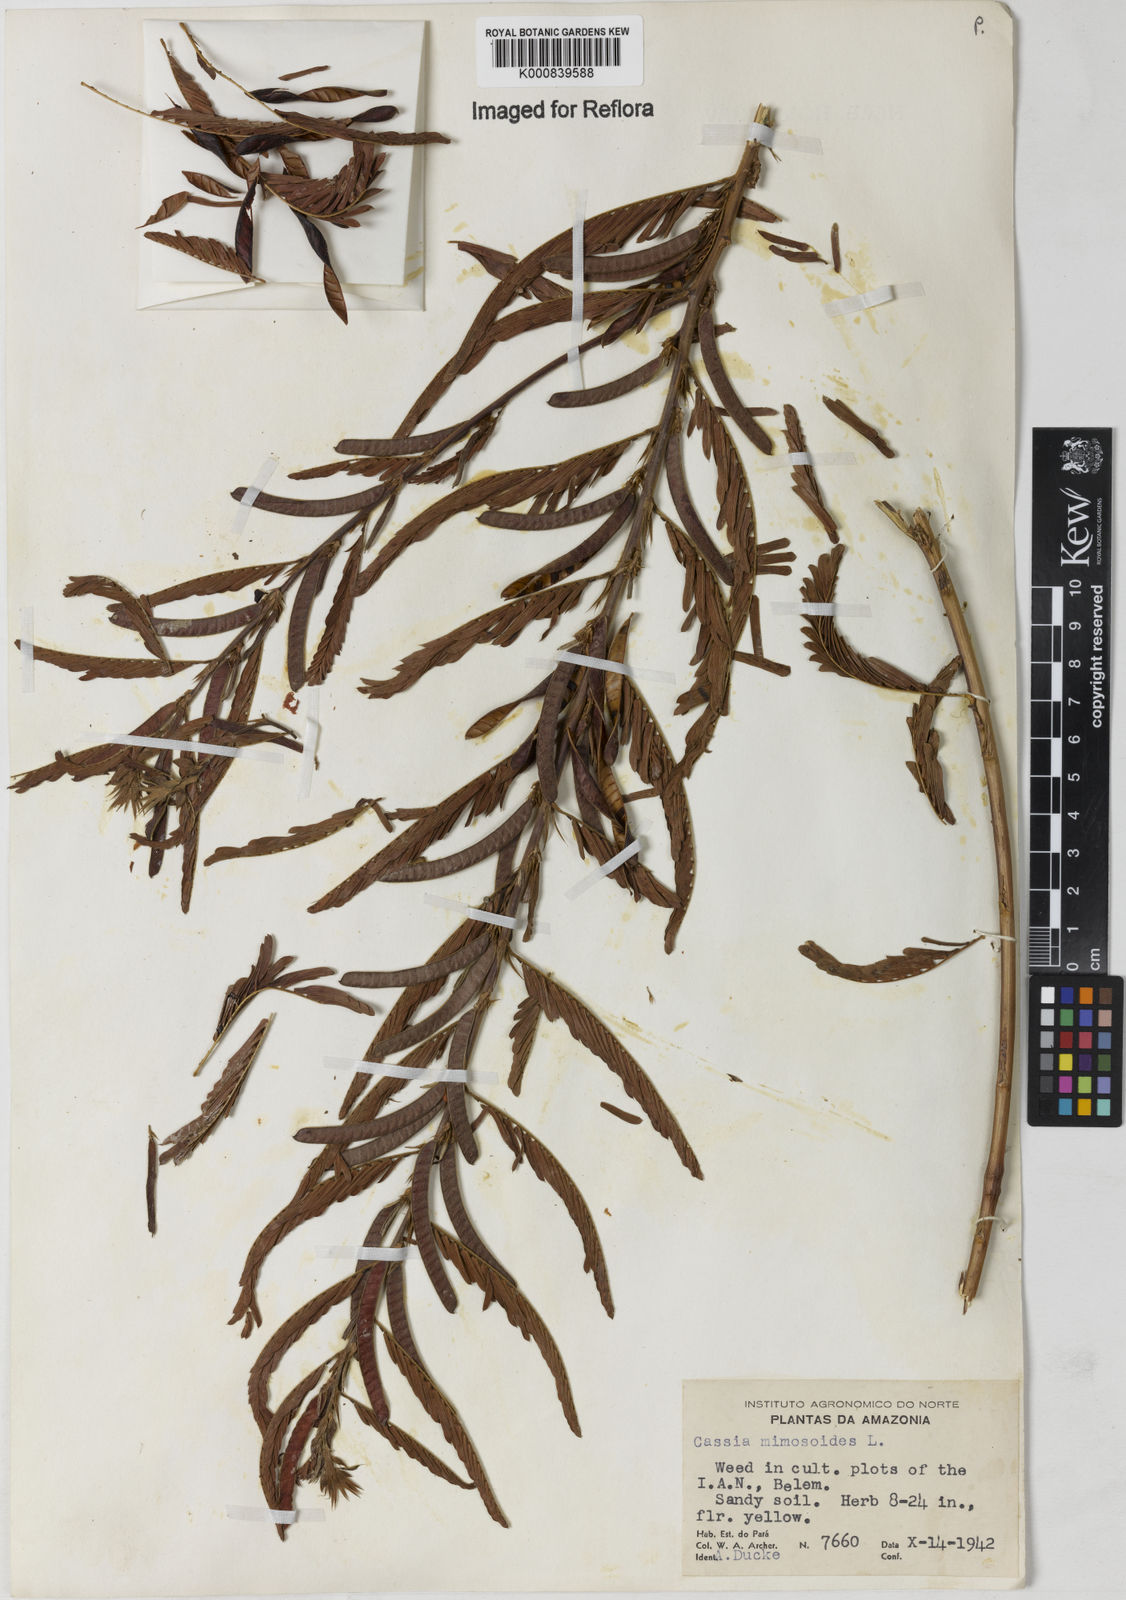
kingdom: Plantae
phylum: Tracheophyta
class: Magnoliopsida
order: Fabales
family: Fabaceae
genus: Chamaecrista
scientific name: Chamaecrista nictitans
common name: Sensitive cassia
